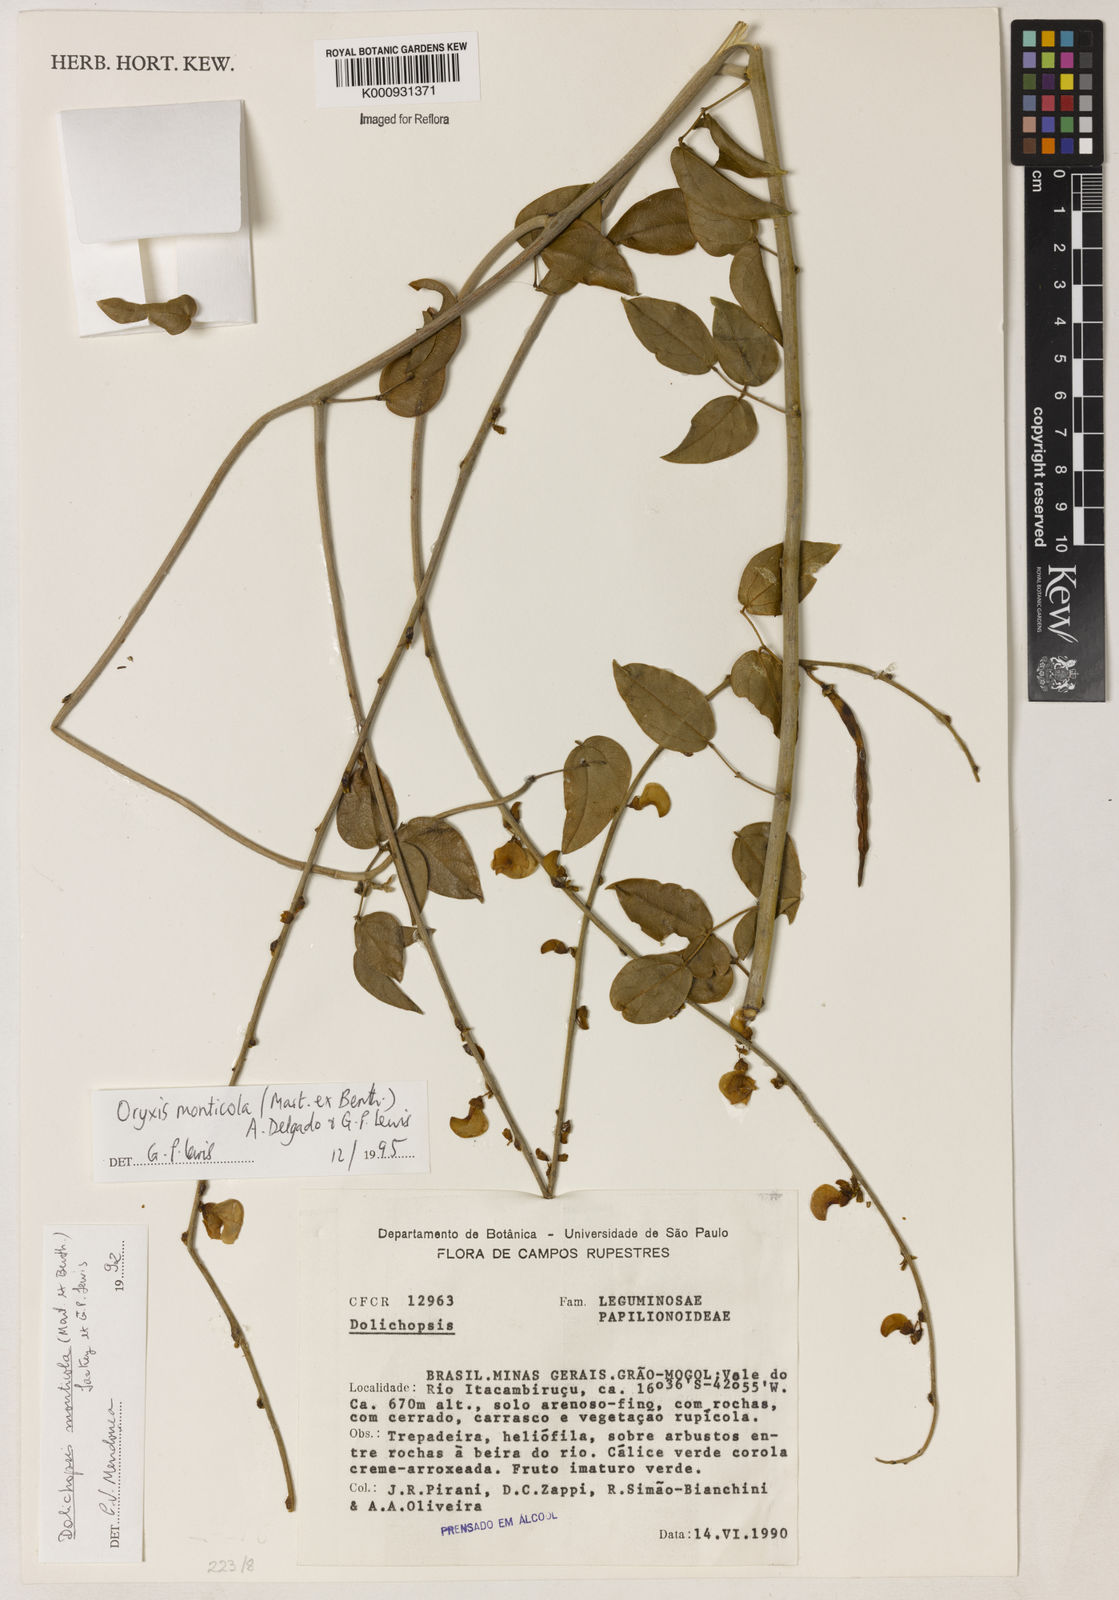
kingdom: Plantae
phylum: Tracheophyta
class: Magnoliopsida
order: Fabales
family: Fabaceae
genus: Dolichopsis
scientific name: Dolichopsis monticola
